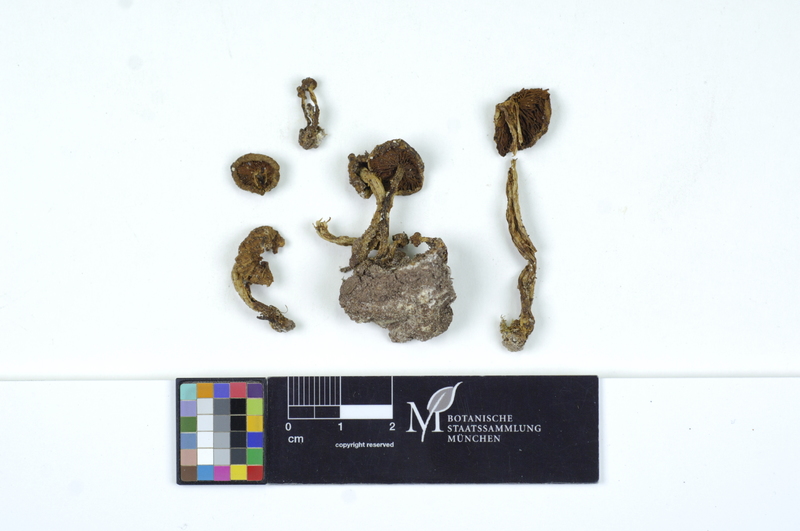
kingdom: Fungi
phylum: Basidiomycota
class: Agaricomycetes
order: Agaricales
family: Strophariaceae
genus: Pholiota
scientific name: Pholiota gummosa
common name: Sticky scalycap
